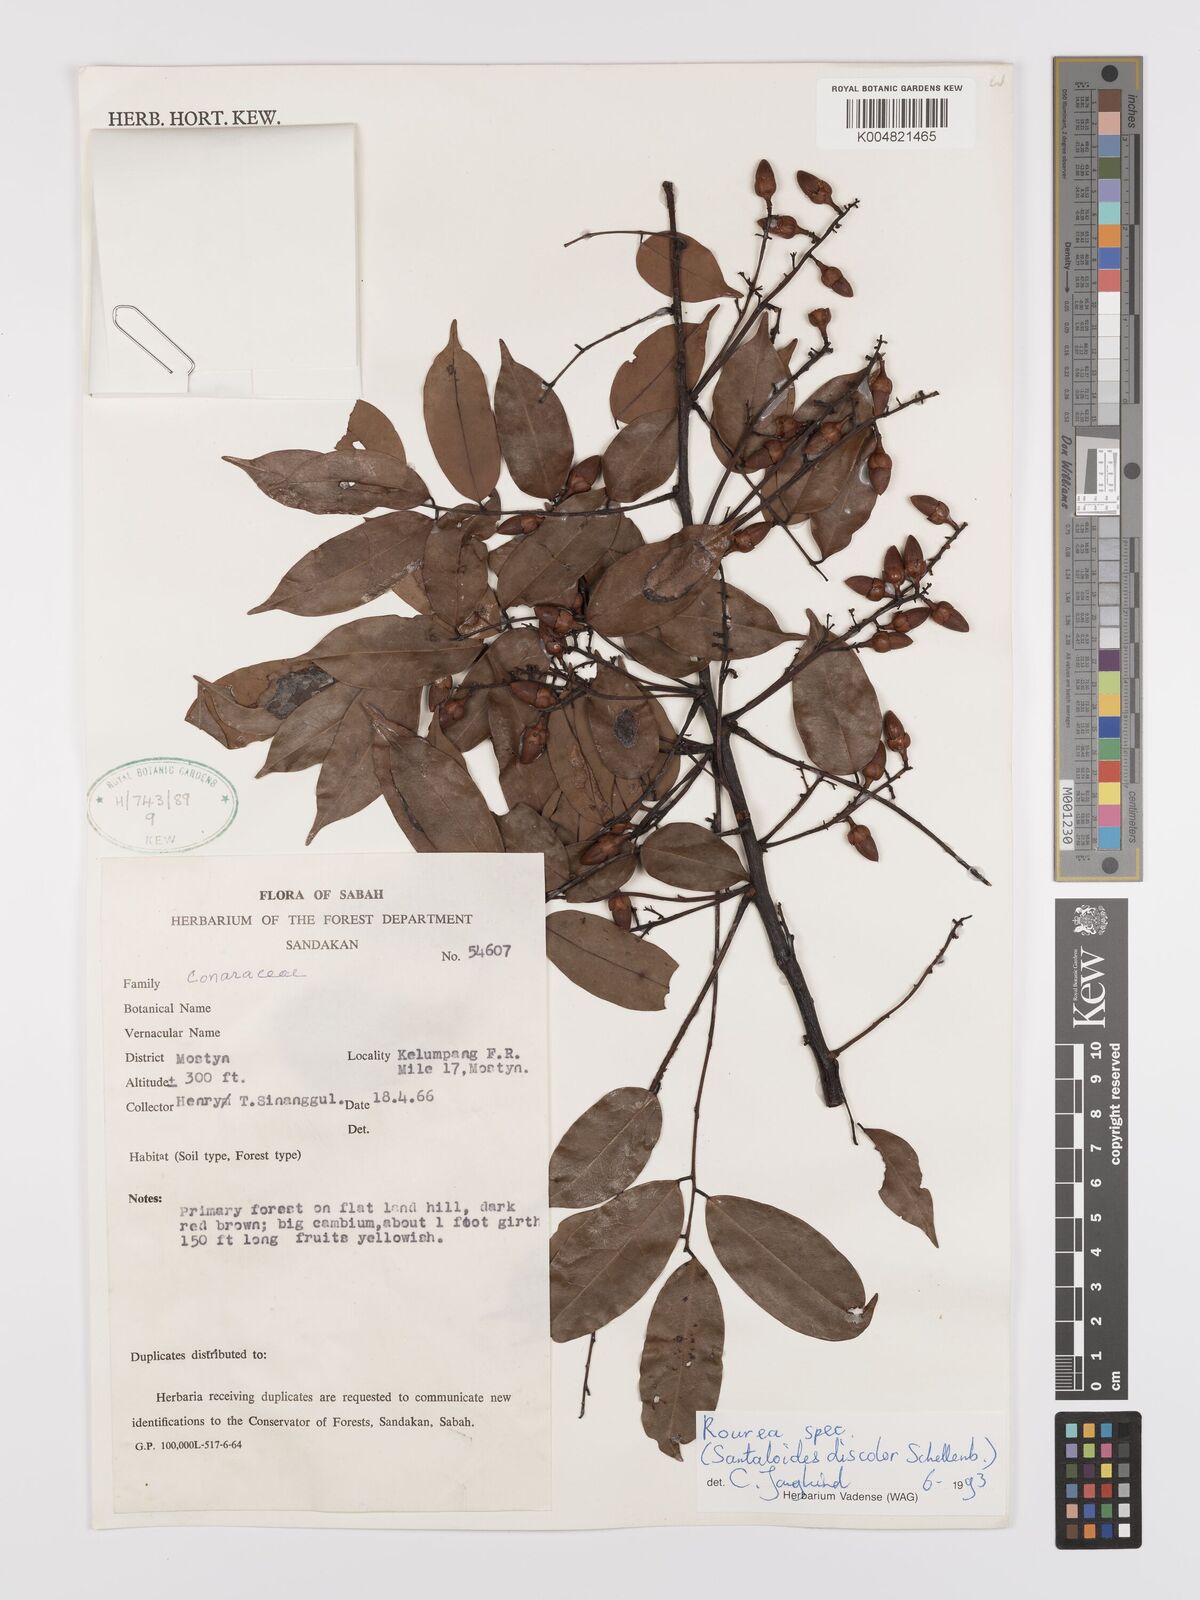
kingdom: Plantae
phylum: Tracheophyta
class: Magnoliopsida
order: Oxalidales
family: Connaraceae
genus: Rourea
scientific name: Rourea
